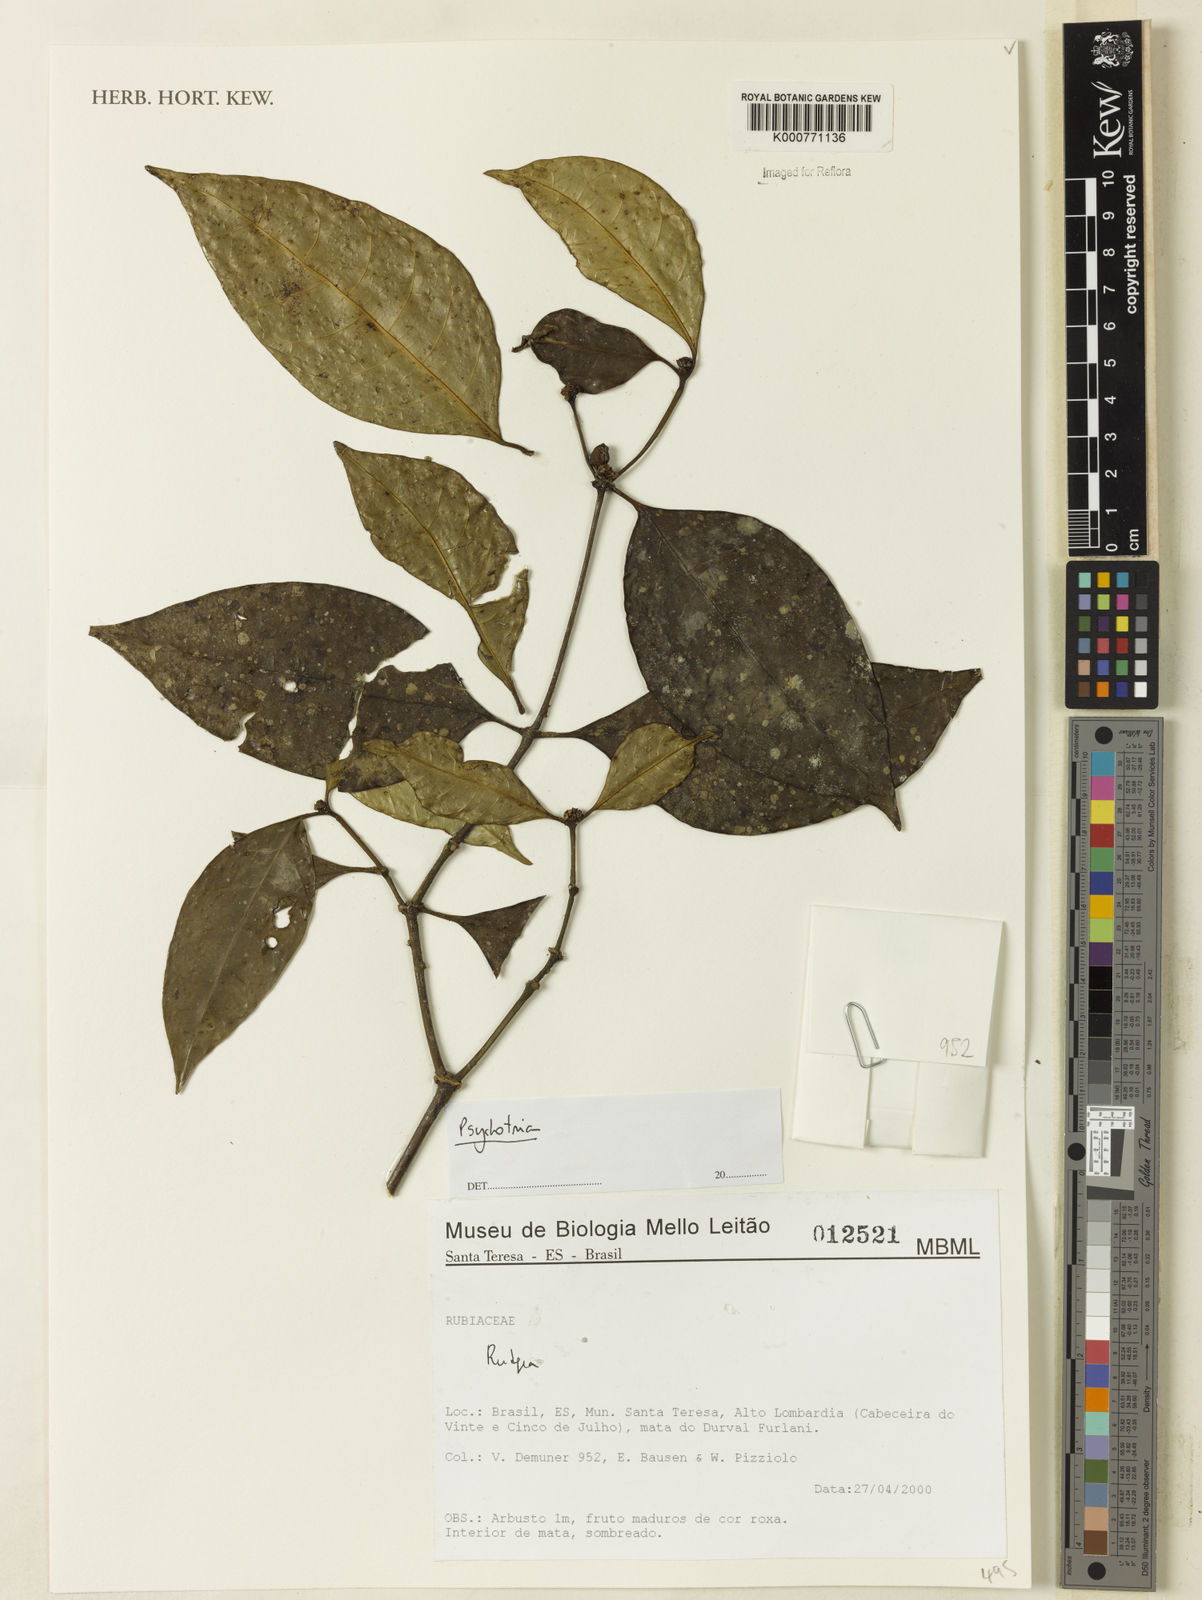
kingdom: Plantae
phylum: Tracheophyta
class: Magnoliopsida
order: Gentianales
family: Rubiaceae
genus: Rudgea
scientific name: Rudgea
